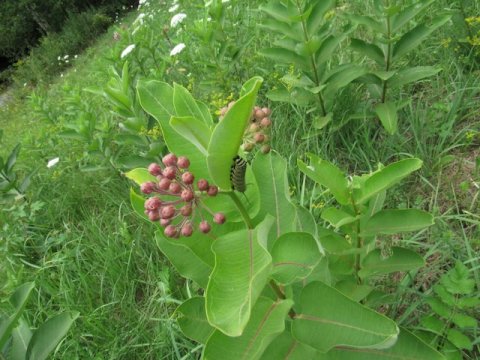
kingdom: Animalia
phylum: Arthropoda
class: Insecta
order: Lepidoptera
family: Nymphalidae
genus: Danaus
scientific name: Danaus plexippus
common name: Monarch
